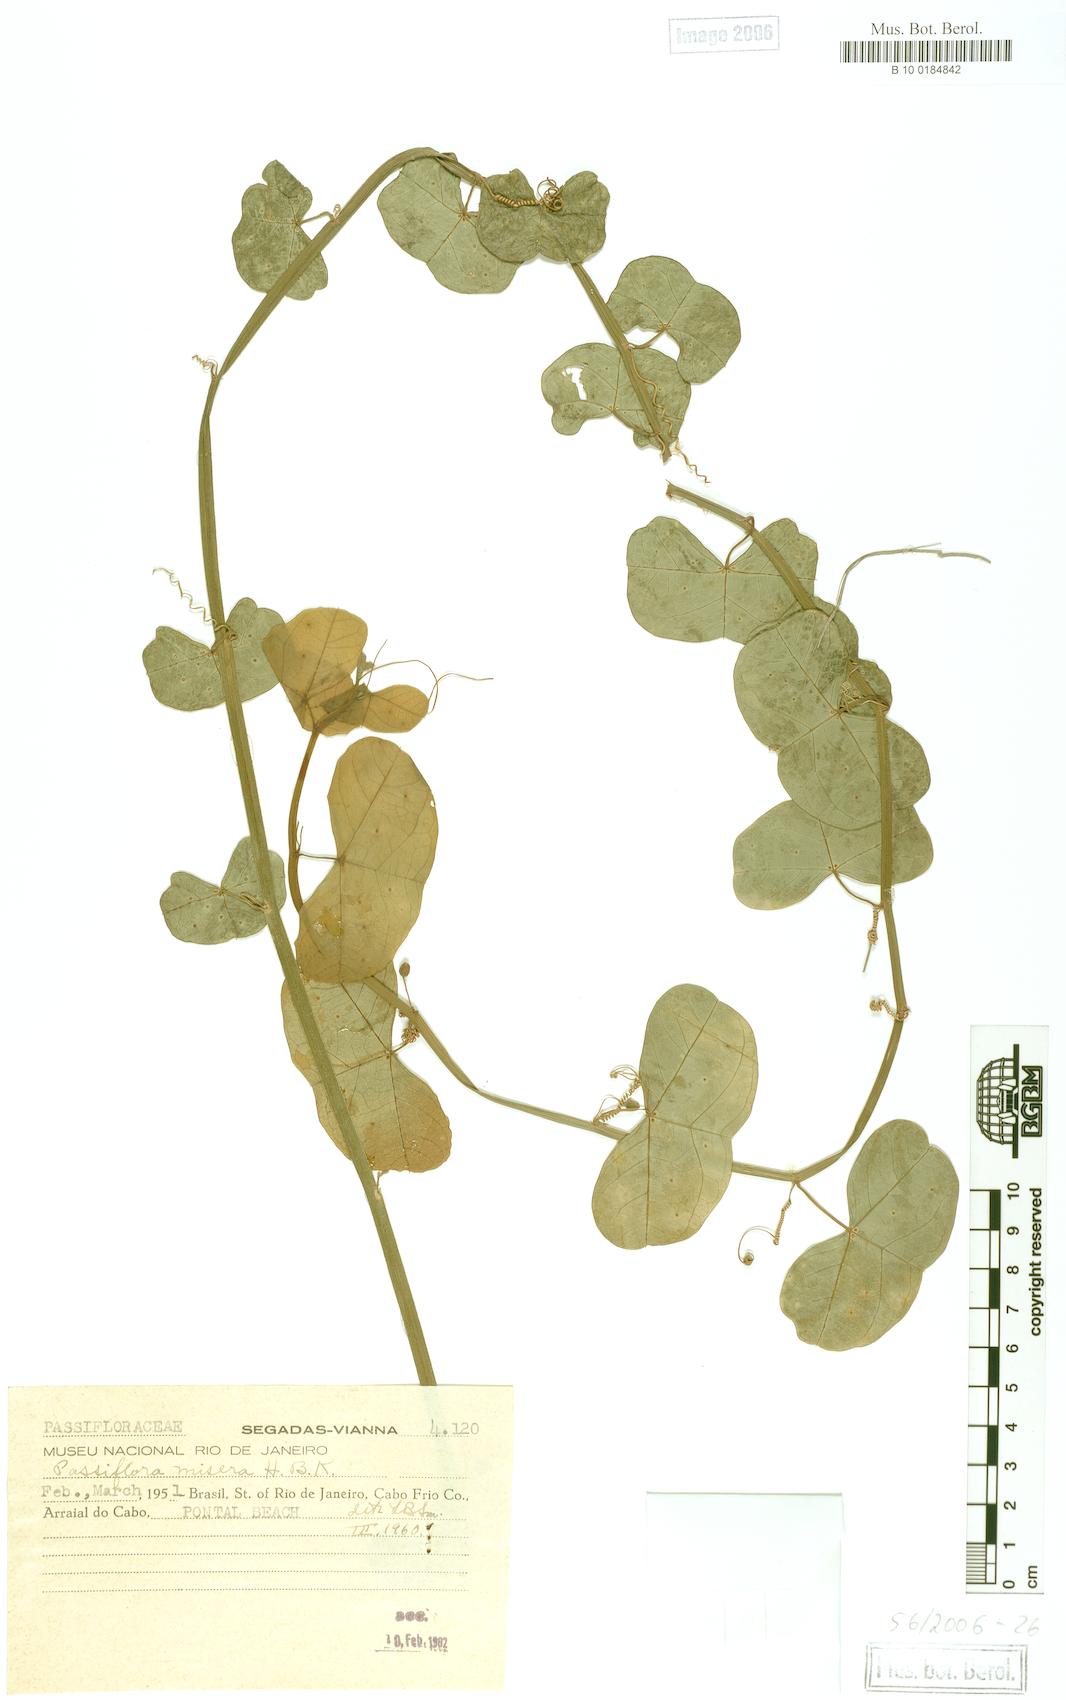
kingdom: Plantae
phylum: Tracheophyta
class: Magnoliopsida
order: Malpighiales
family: Passifloraceae
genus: Passiflora
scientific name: Passiflora saxicola
